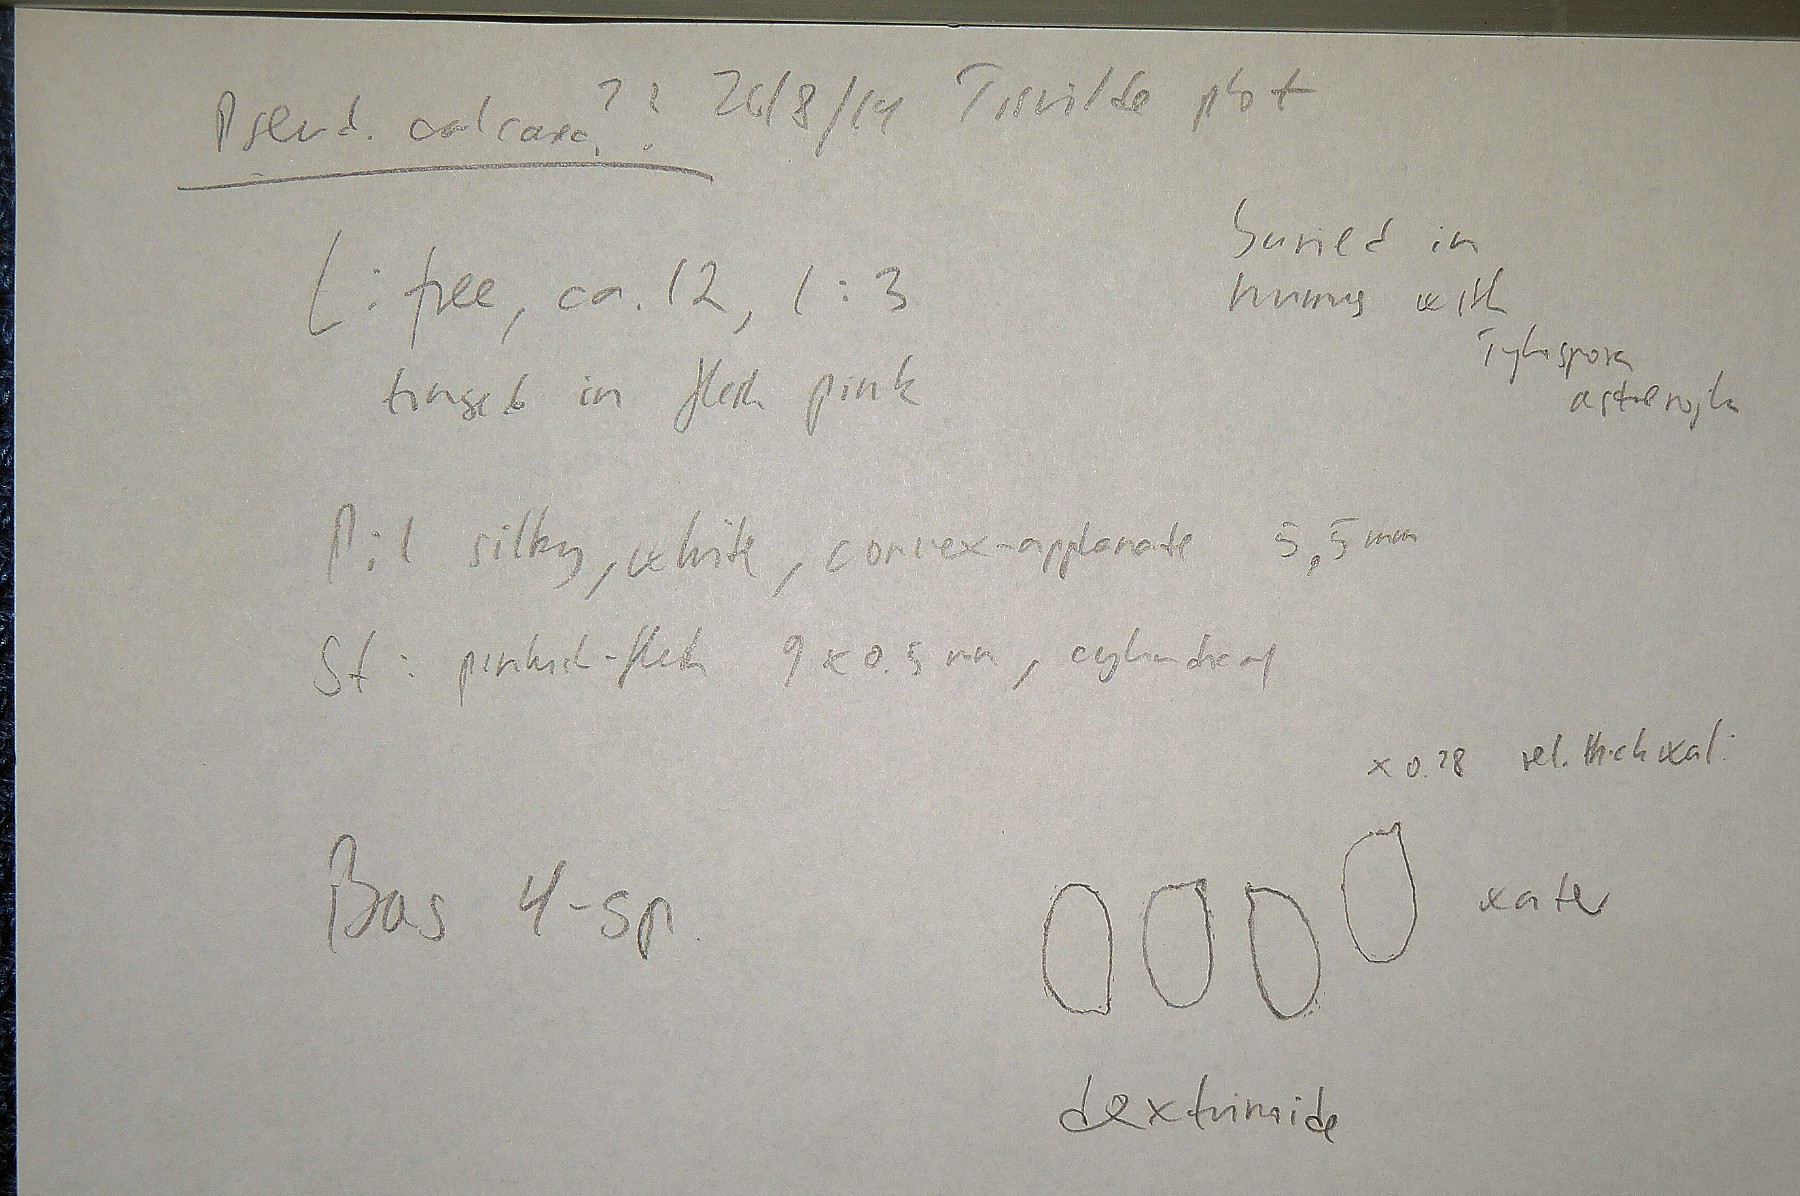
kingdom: Fungi
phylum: Basidiomycota
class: Agaricomycetes
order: Agaricales
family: Tricholomataceae
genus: Pseudobaeospora
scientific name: Pseudobaeospora
